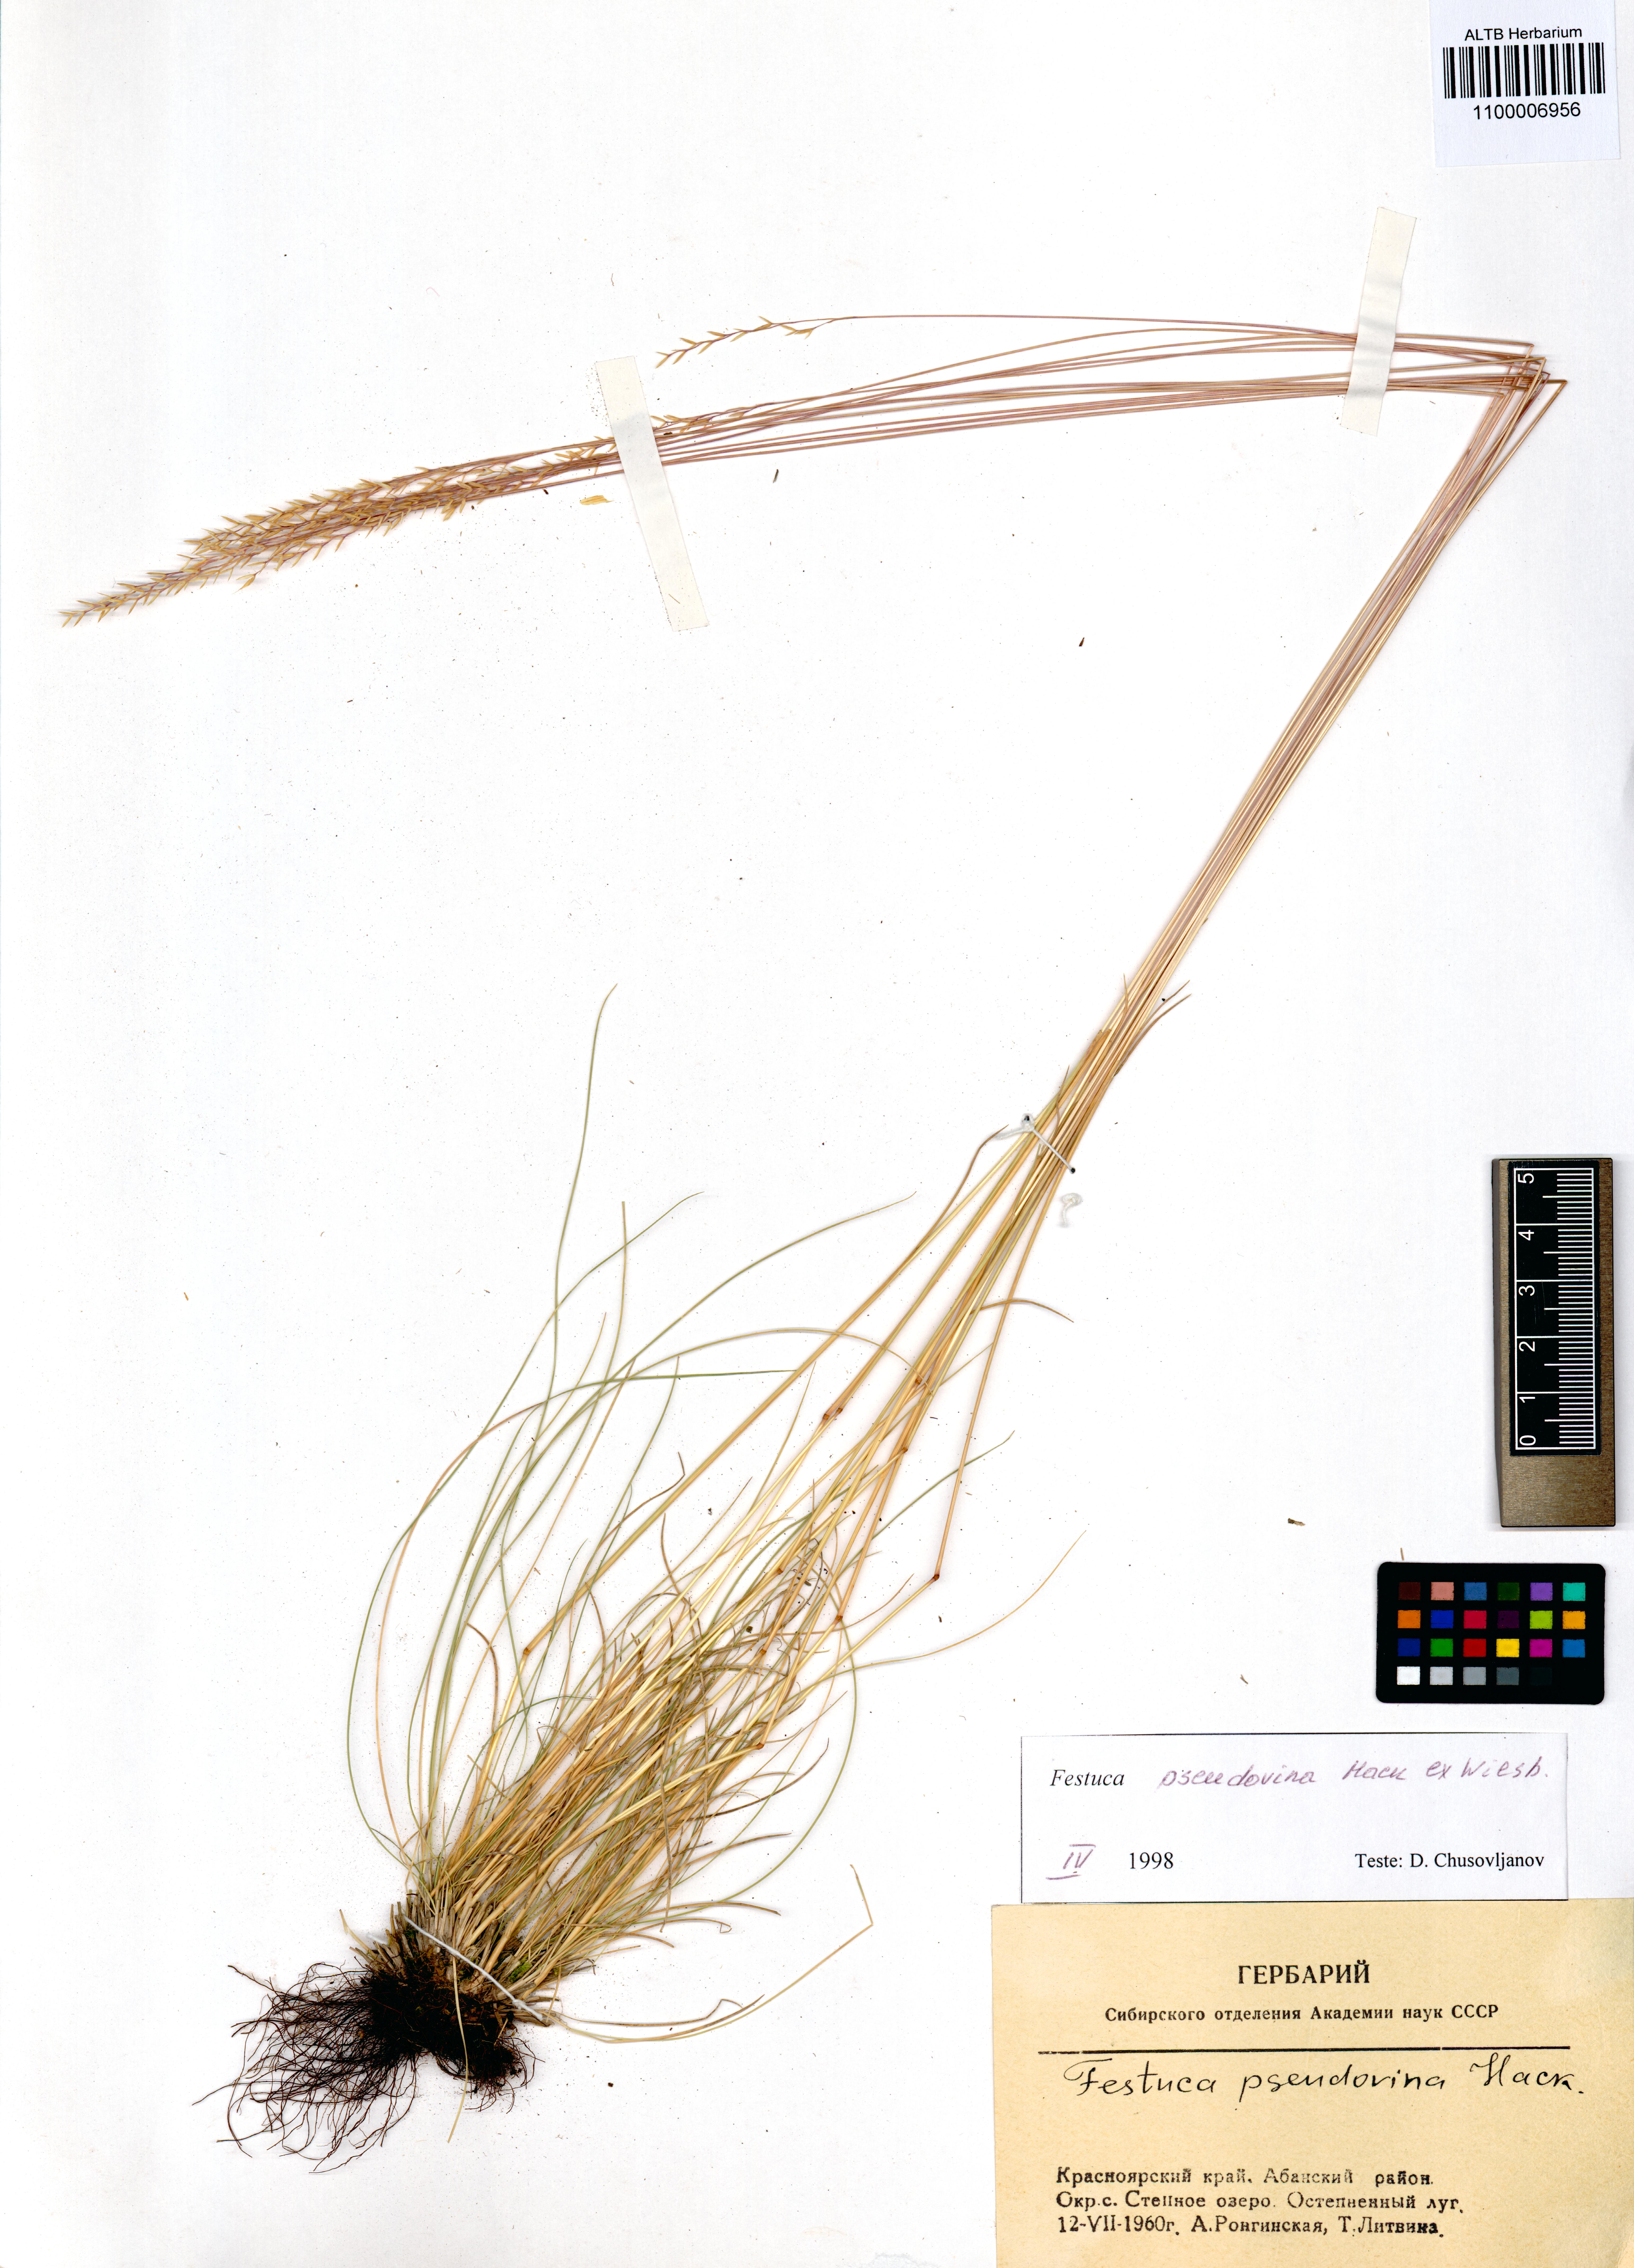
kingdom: Plantae
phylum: Tracheophyta
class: Liliopsida
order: Poales
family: Poaceae
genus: Festuca
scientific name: Festuca pulchra
